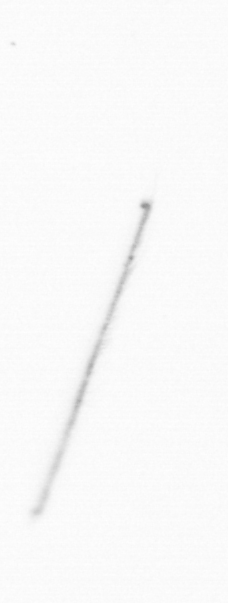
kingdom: Chromista
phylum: Ochrophyta
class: Bacillariophyceae
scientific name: Bacillariophyceae
